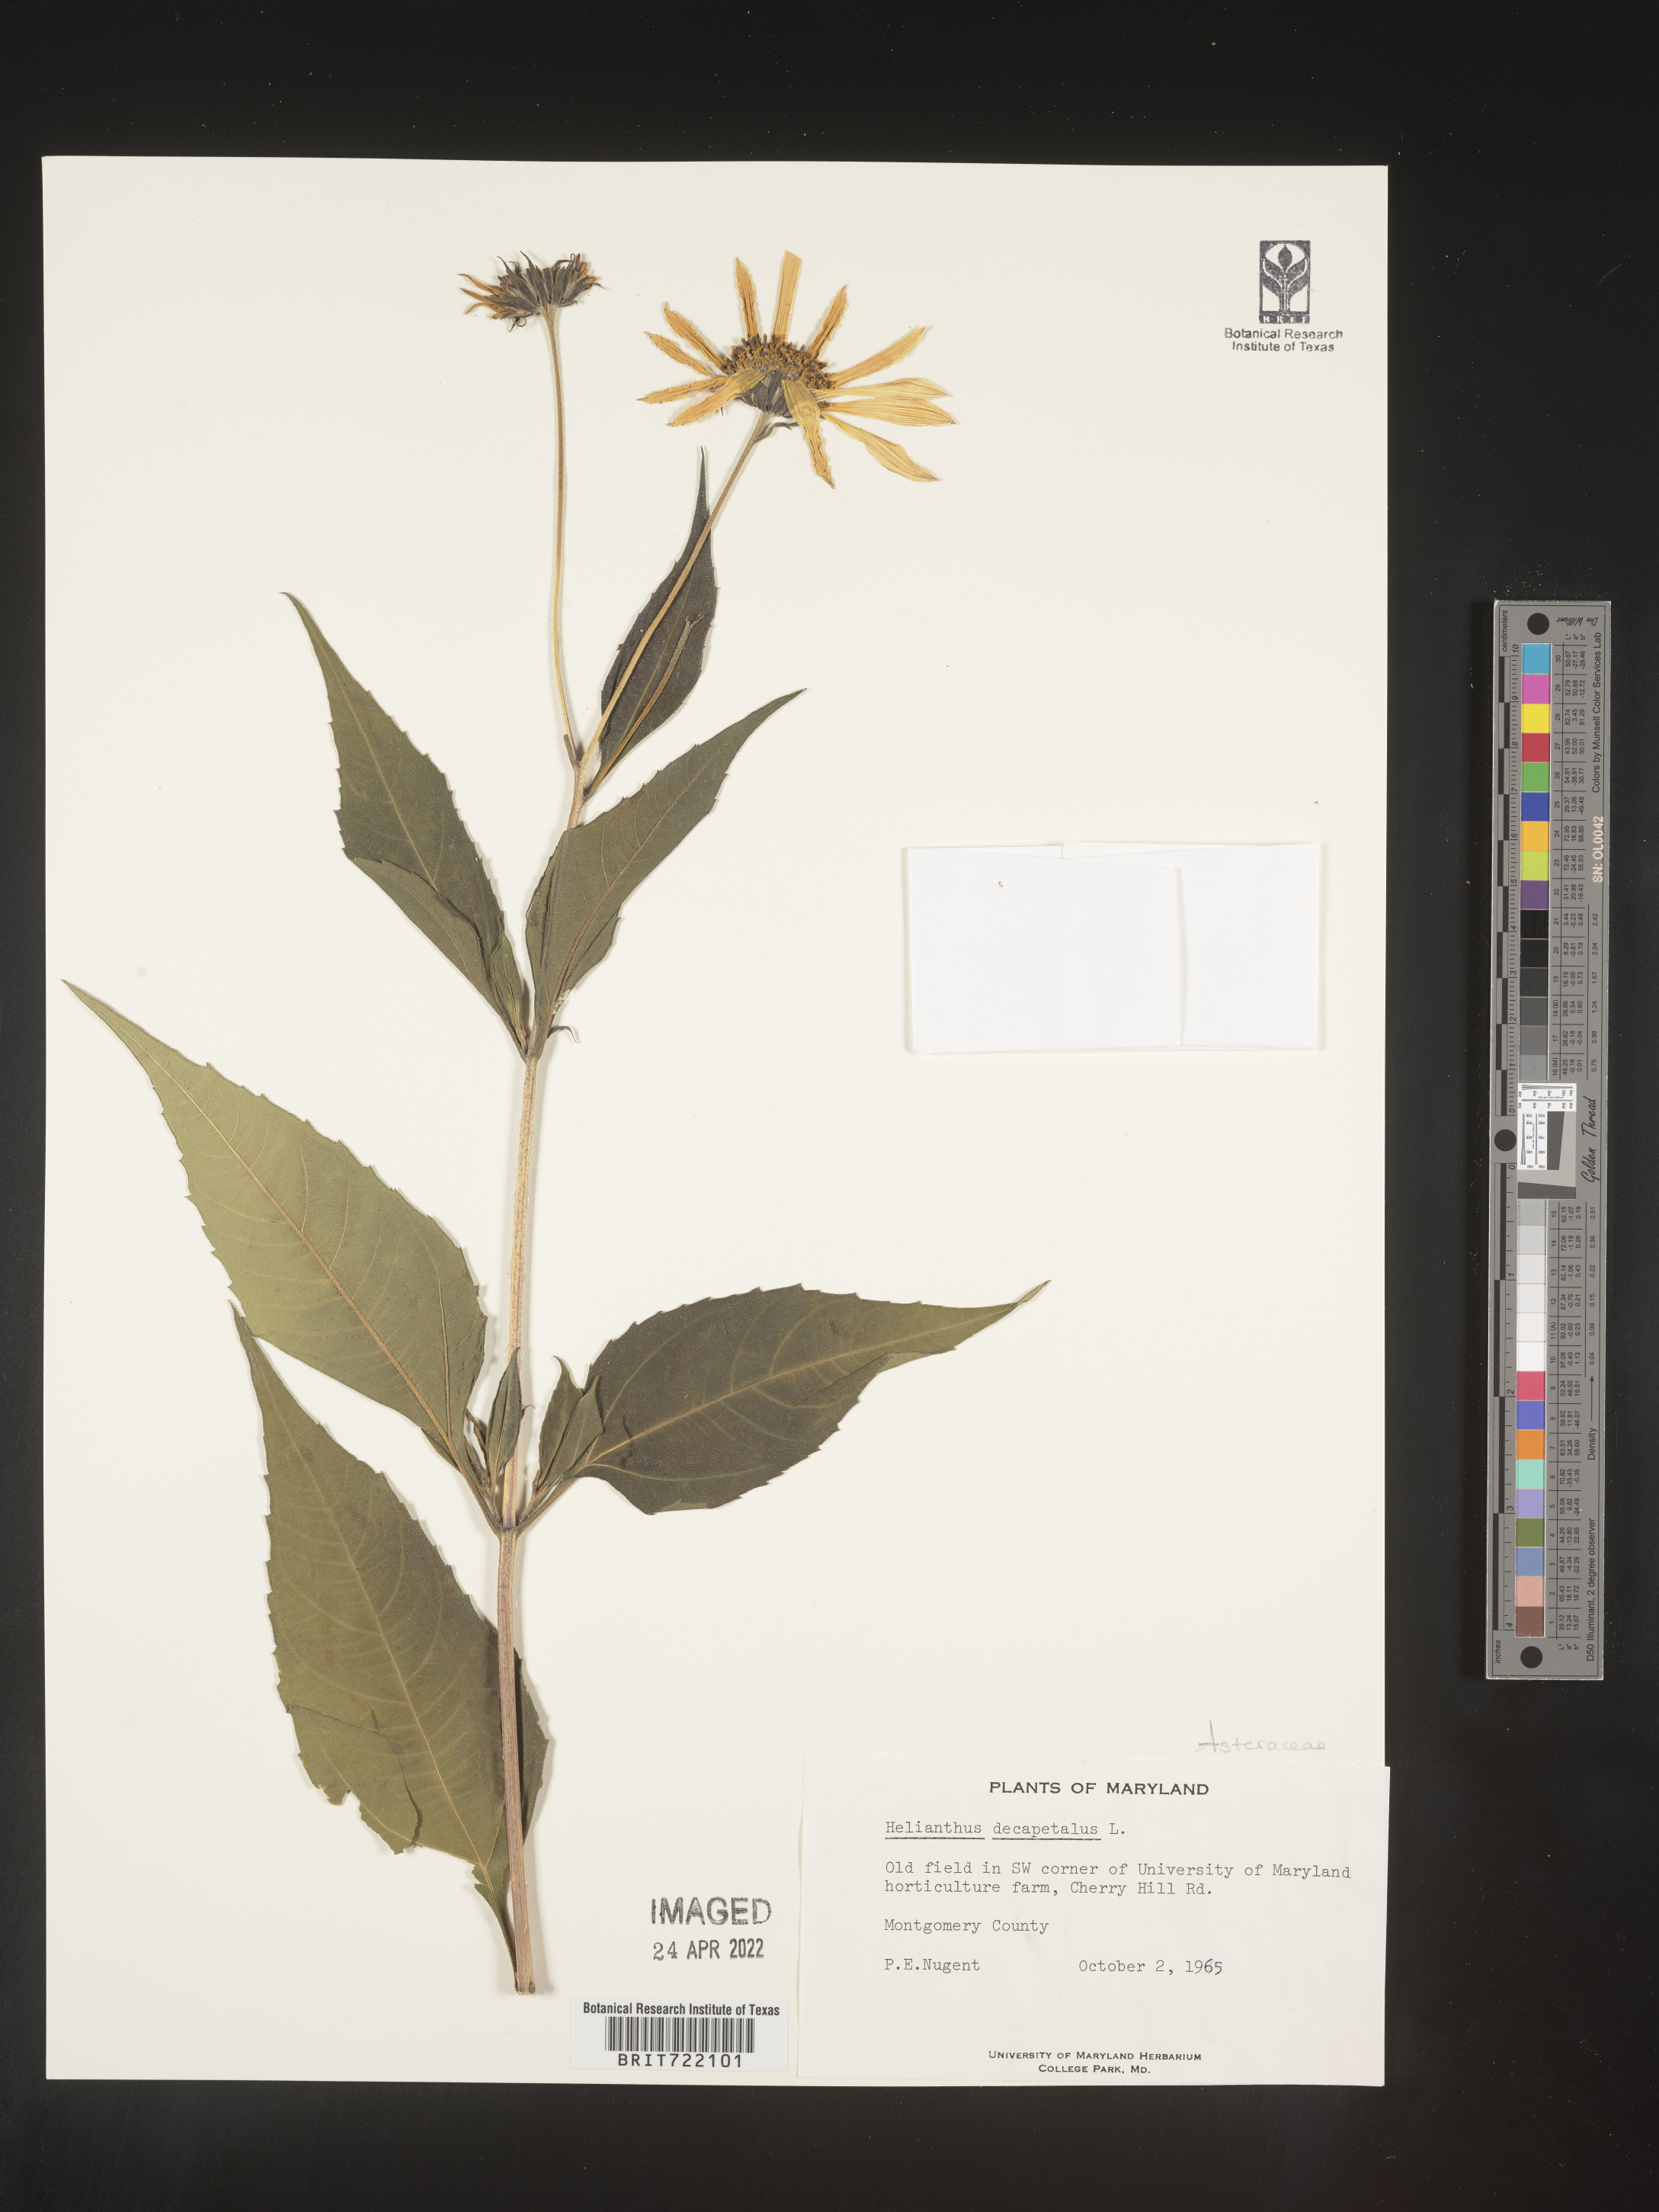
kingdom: Plantae
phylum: Tracheophyta
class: Magnoliopsida
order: Asterales
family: Asteraceae
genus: Helianthus
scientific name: Helianthus decapetalus
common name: Thin-leaved sunflower
